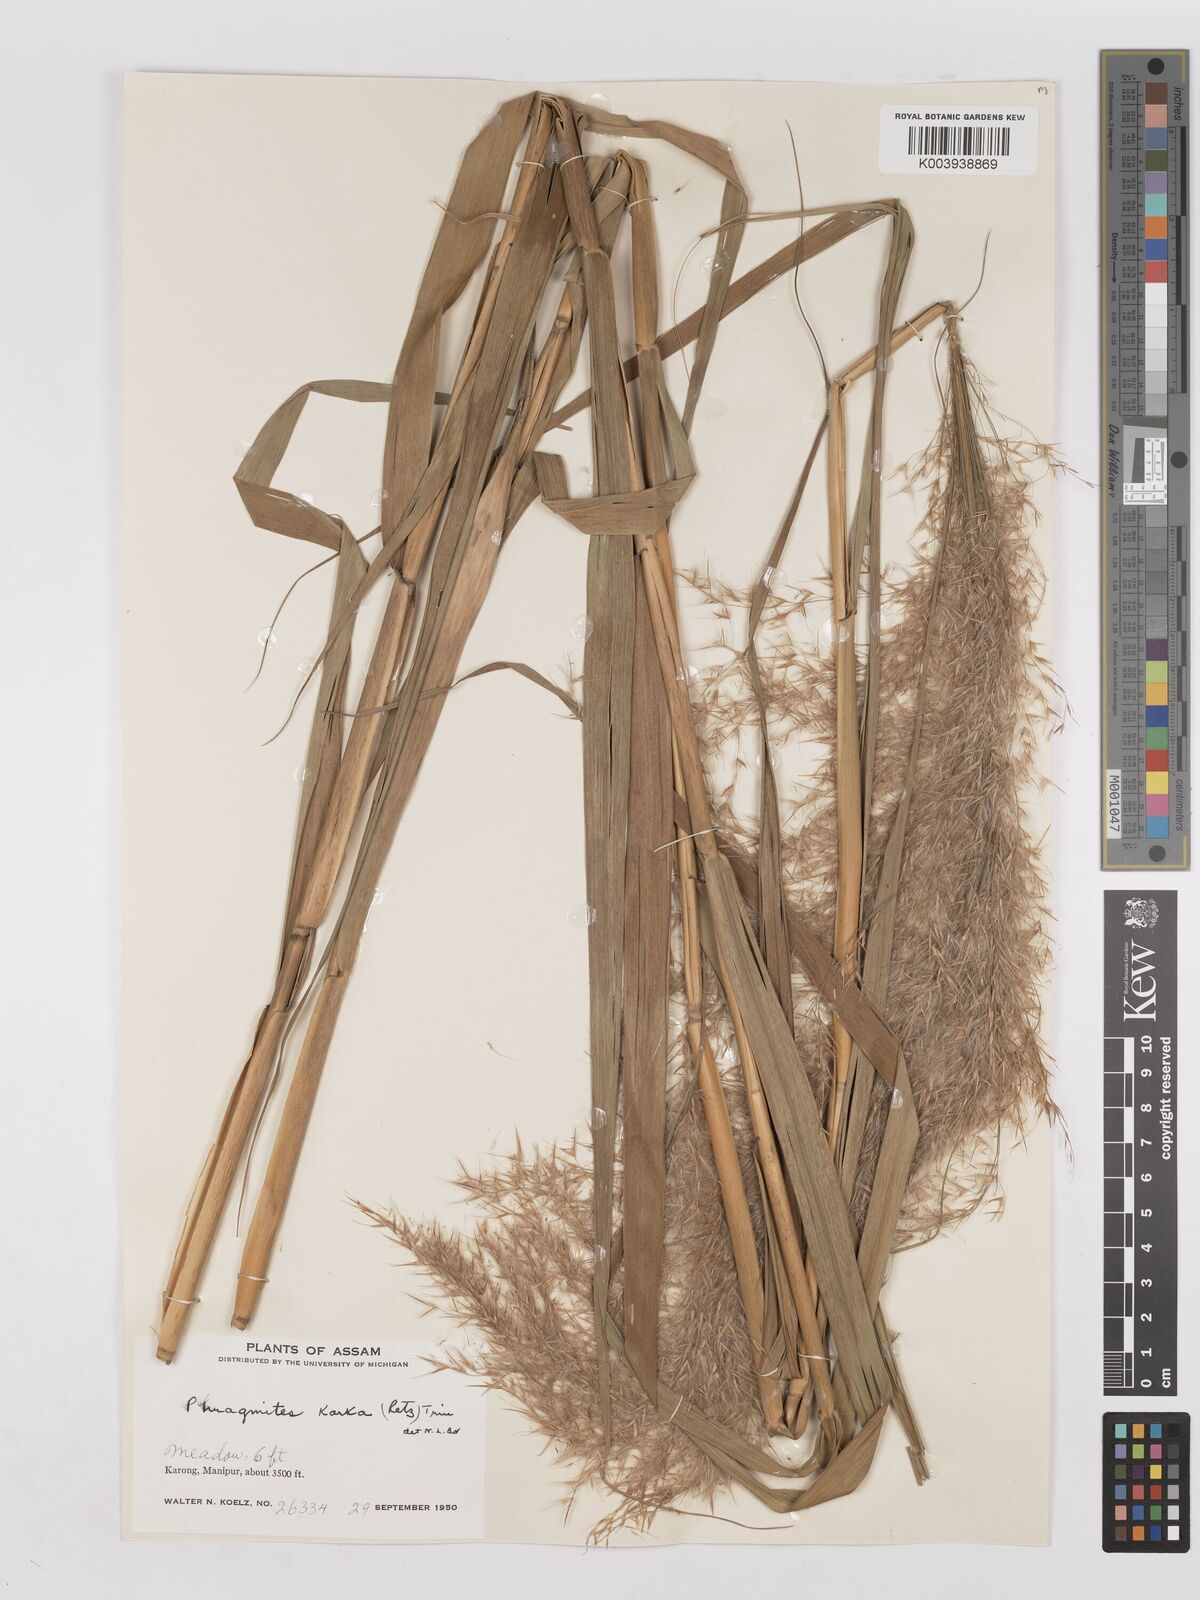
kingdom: Plantae
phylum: Tracheophyta
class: Liliopsida
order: Poales
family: Poaceae
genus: Phragmites
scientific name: Phragmites karka
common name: Tropical reed
